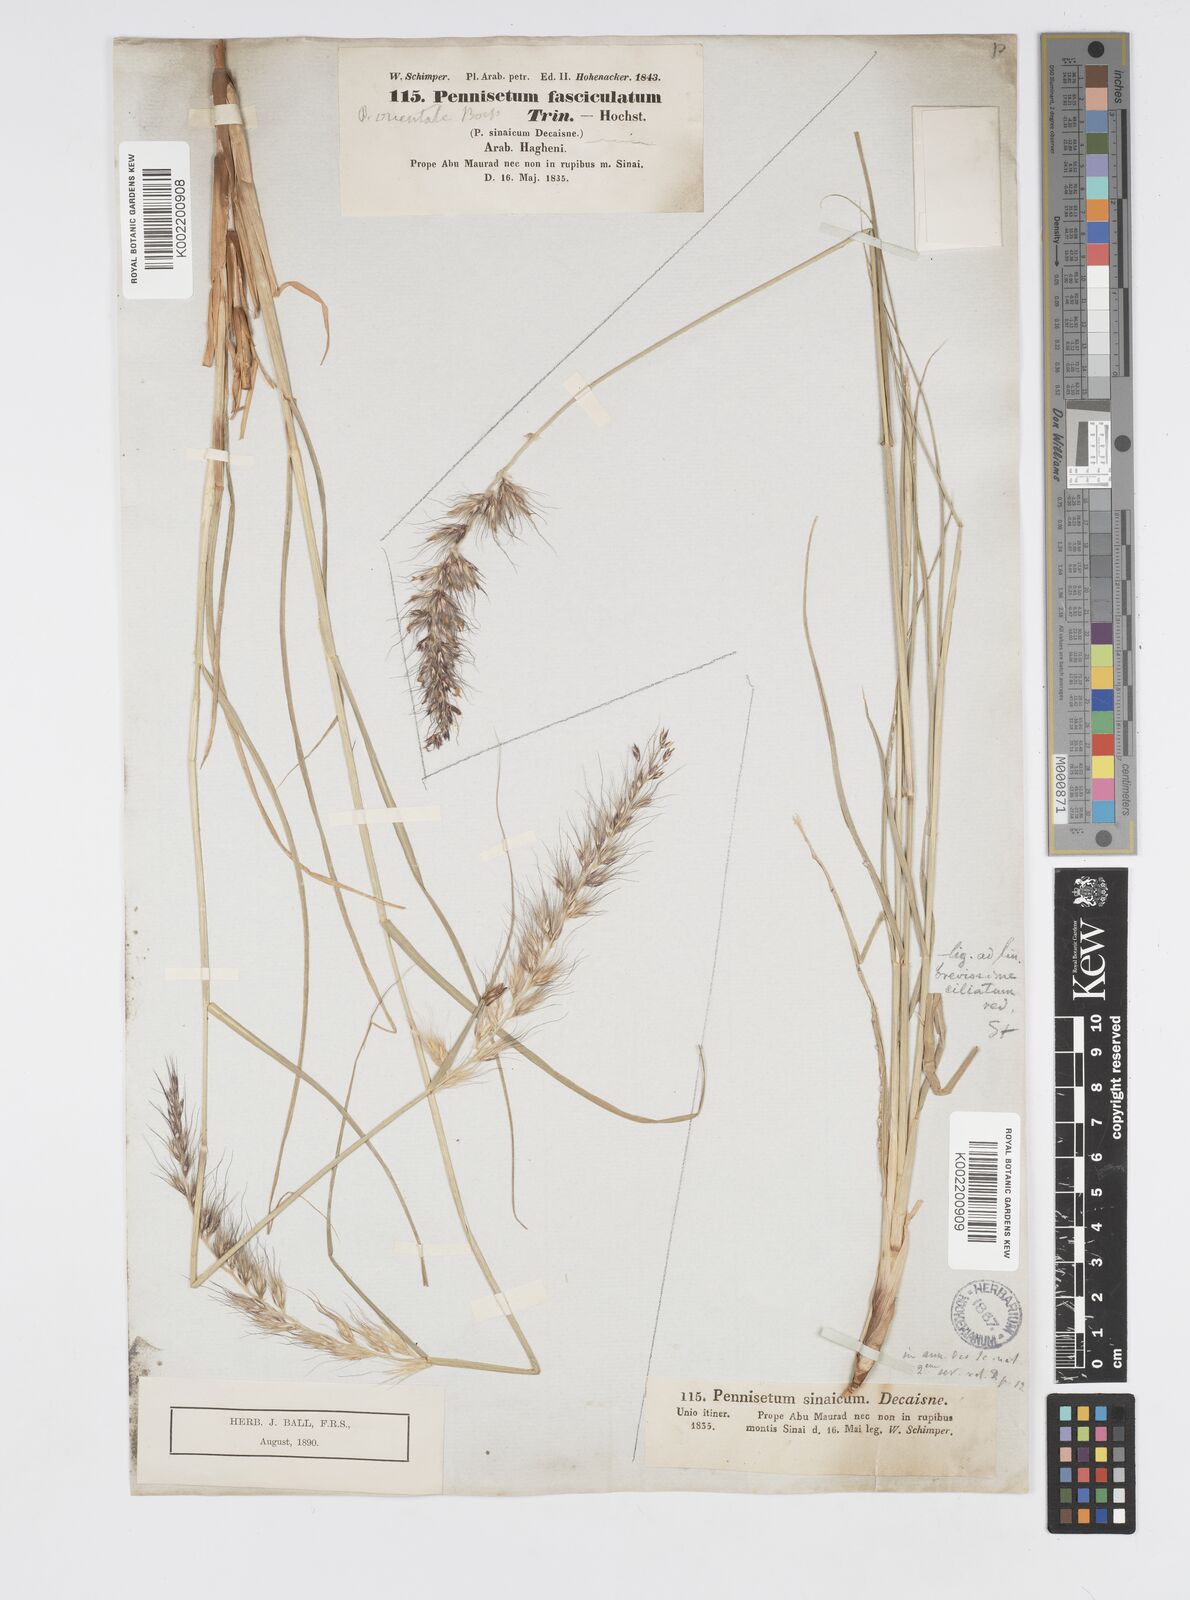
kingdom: Plantae
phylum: Tracheophyta
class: Liliopsida
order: Poales
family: Poaceae
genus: Cenchrus
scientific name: Cenchrus orientalis
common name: Oriental fountain grass
